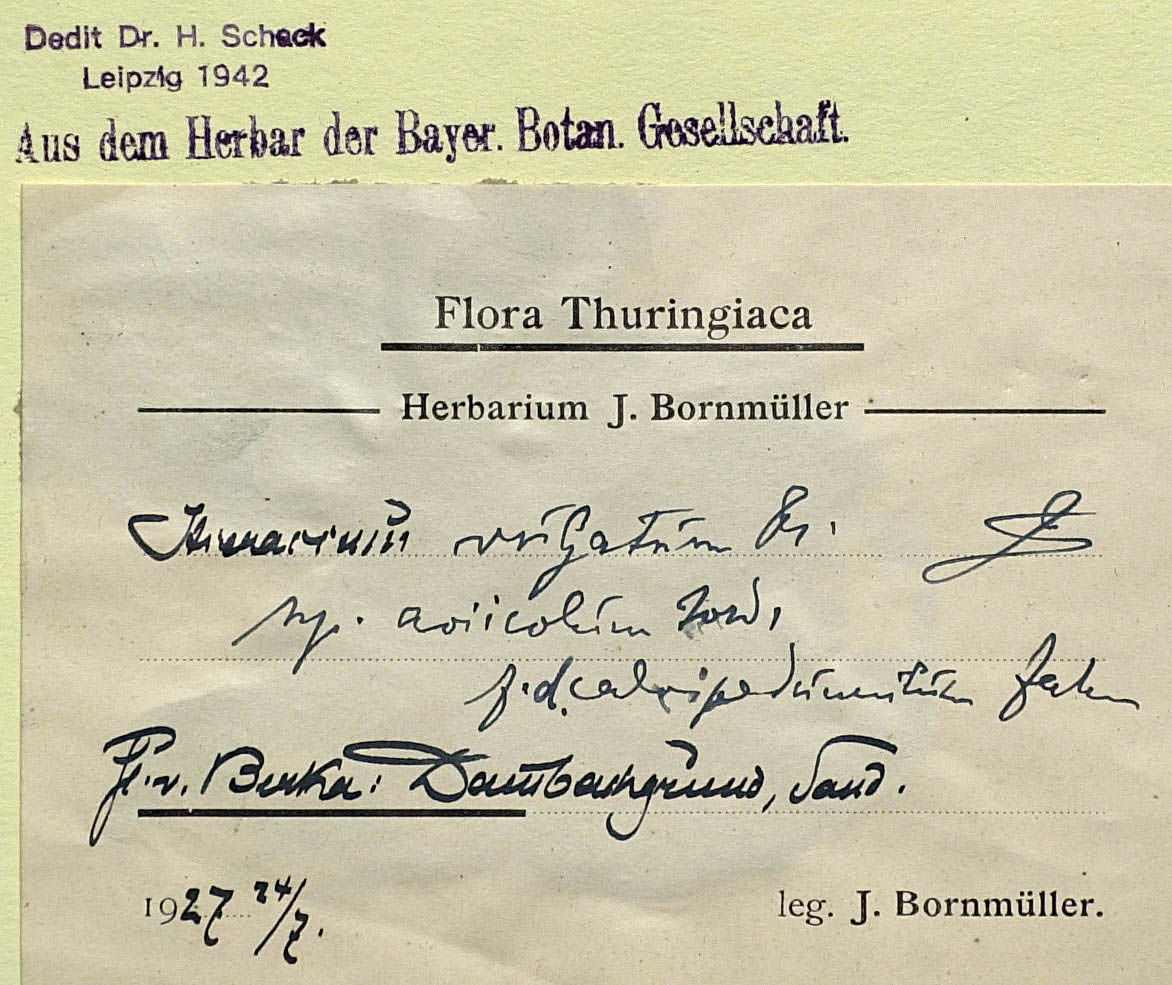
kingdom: Plantae
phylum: Tracheophyta
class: Magnoliopsida
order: Asterales
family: Asteraceae
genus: Hieracium
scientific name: Hieracium lachenalii
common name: Common hawkweed
